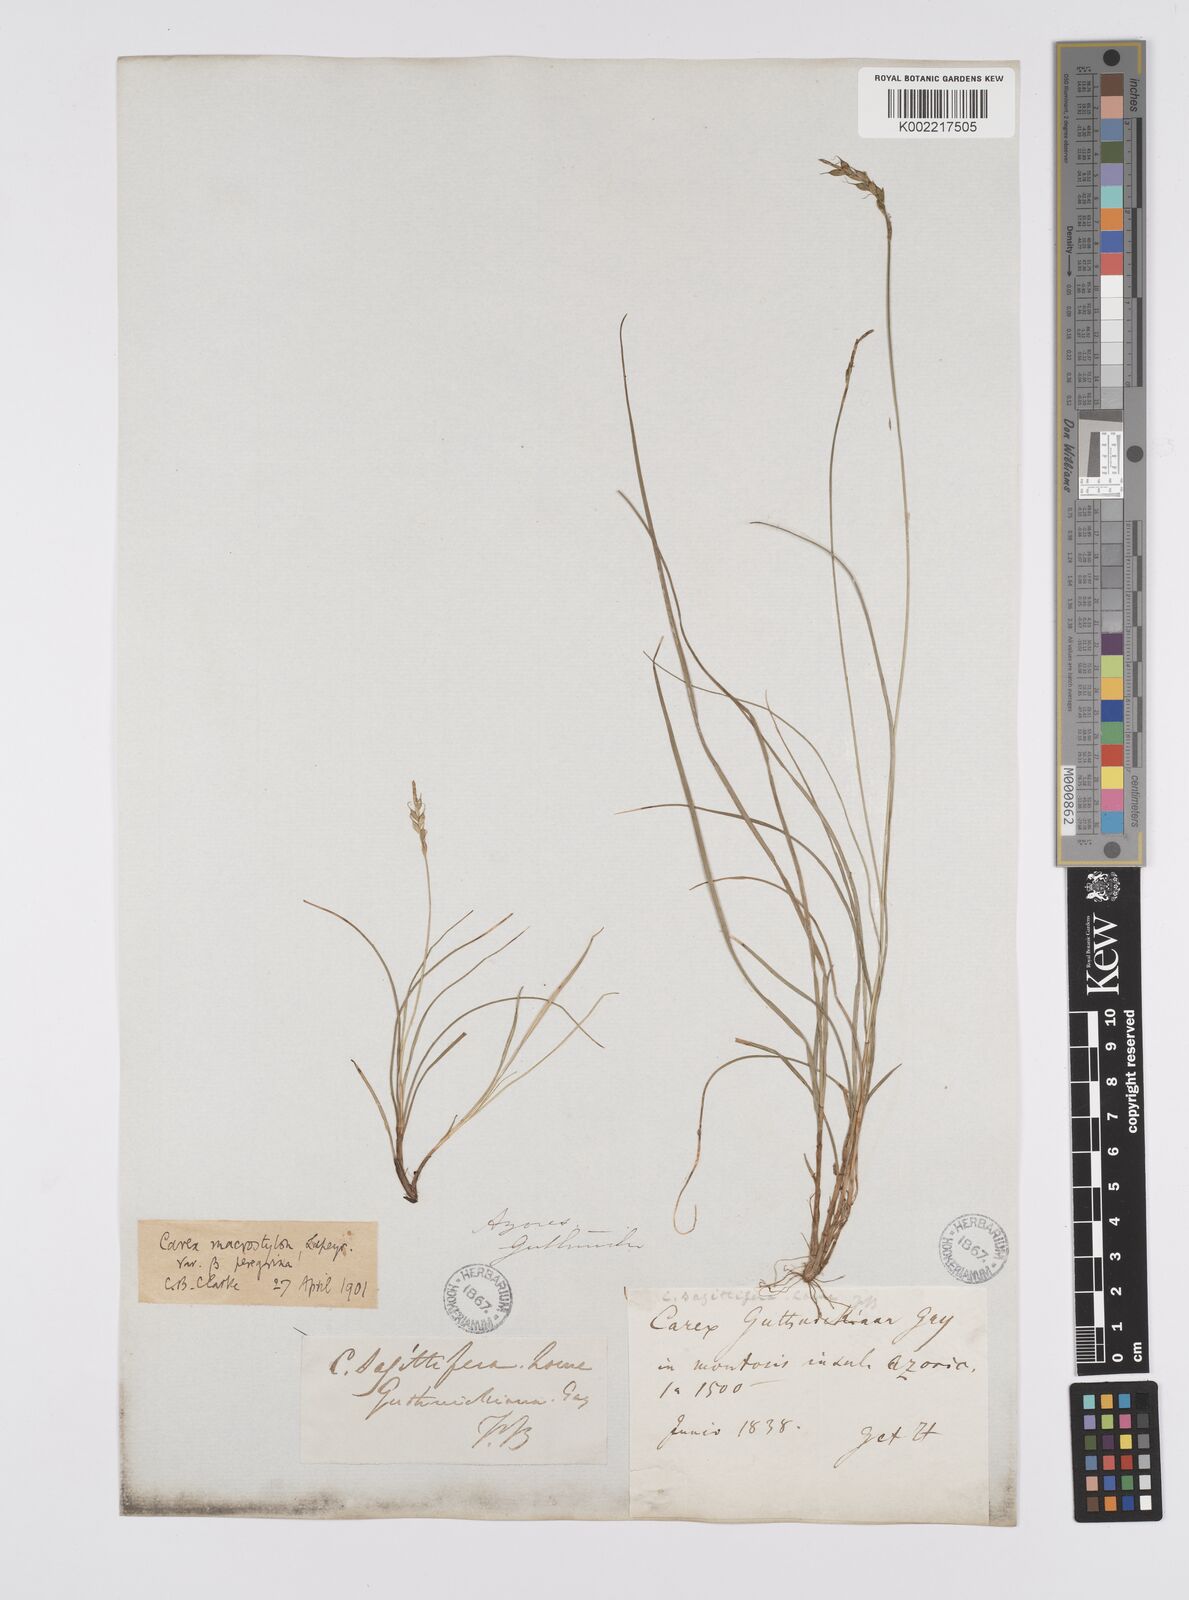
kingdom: Plantae
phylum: Tracheophyta
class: Liliopsida
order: Poales
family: Cyperaceae
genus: Carex
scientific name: Carex peregrina
